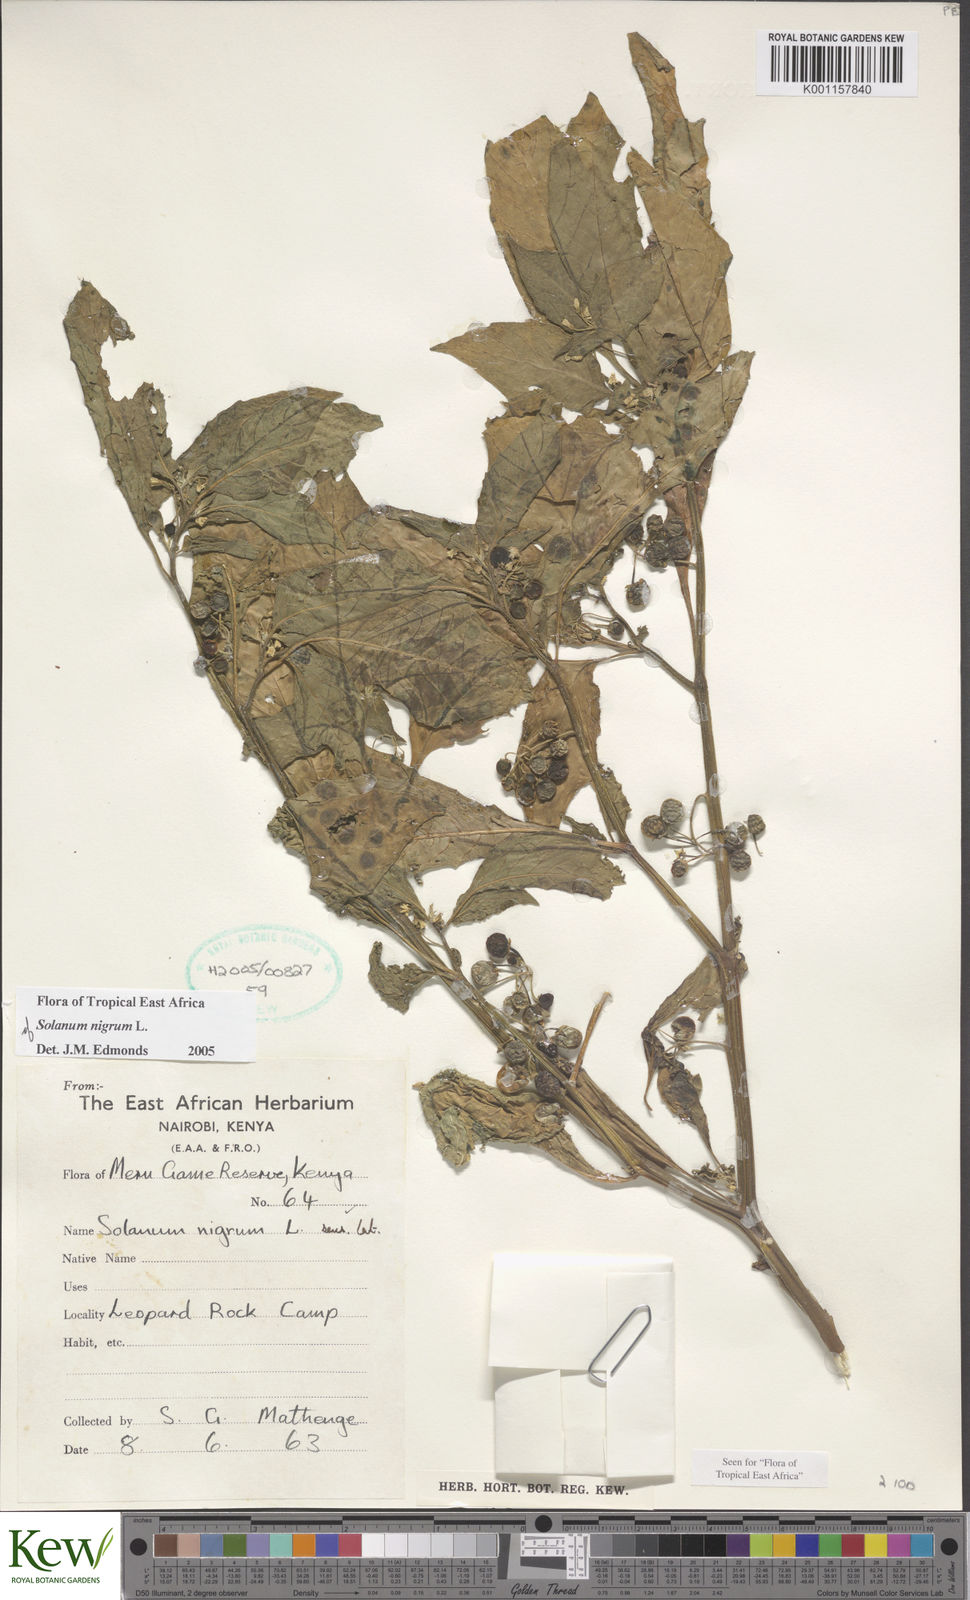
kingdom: Plantae
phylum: Tracheophyta
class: Magnoliopsida
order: Solanales
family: Solanaceae
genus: Solanum
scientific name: Solanum nigrum
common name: Black nightshade
